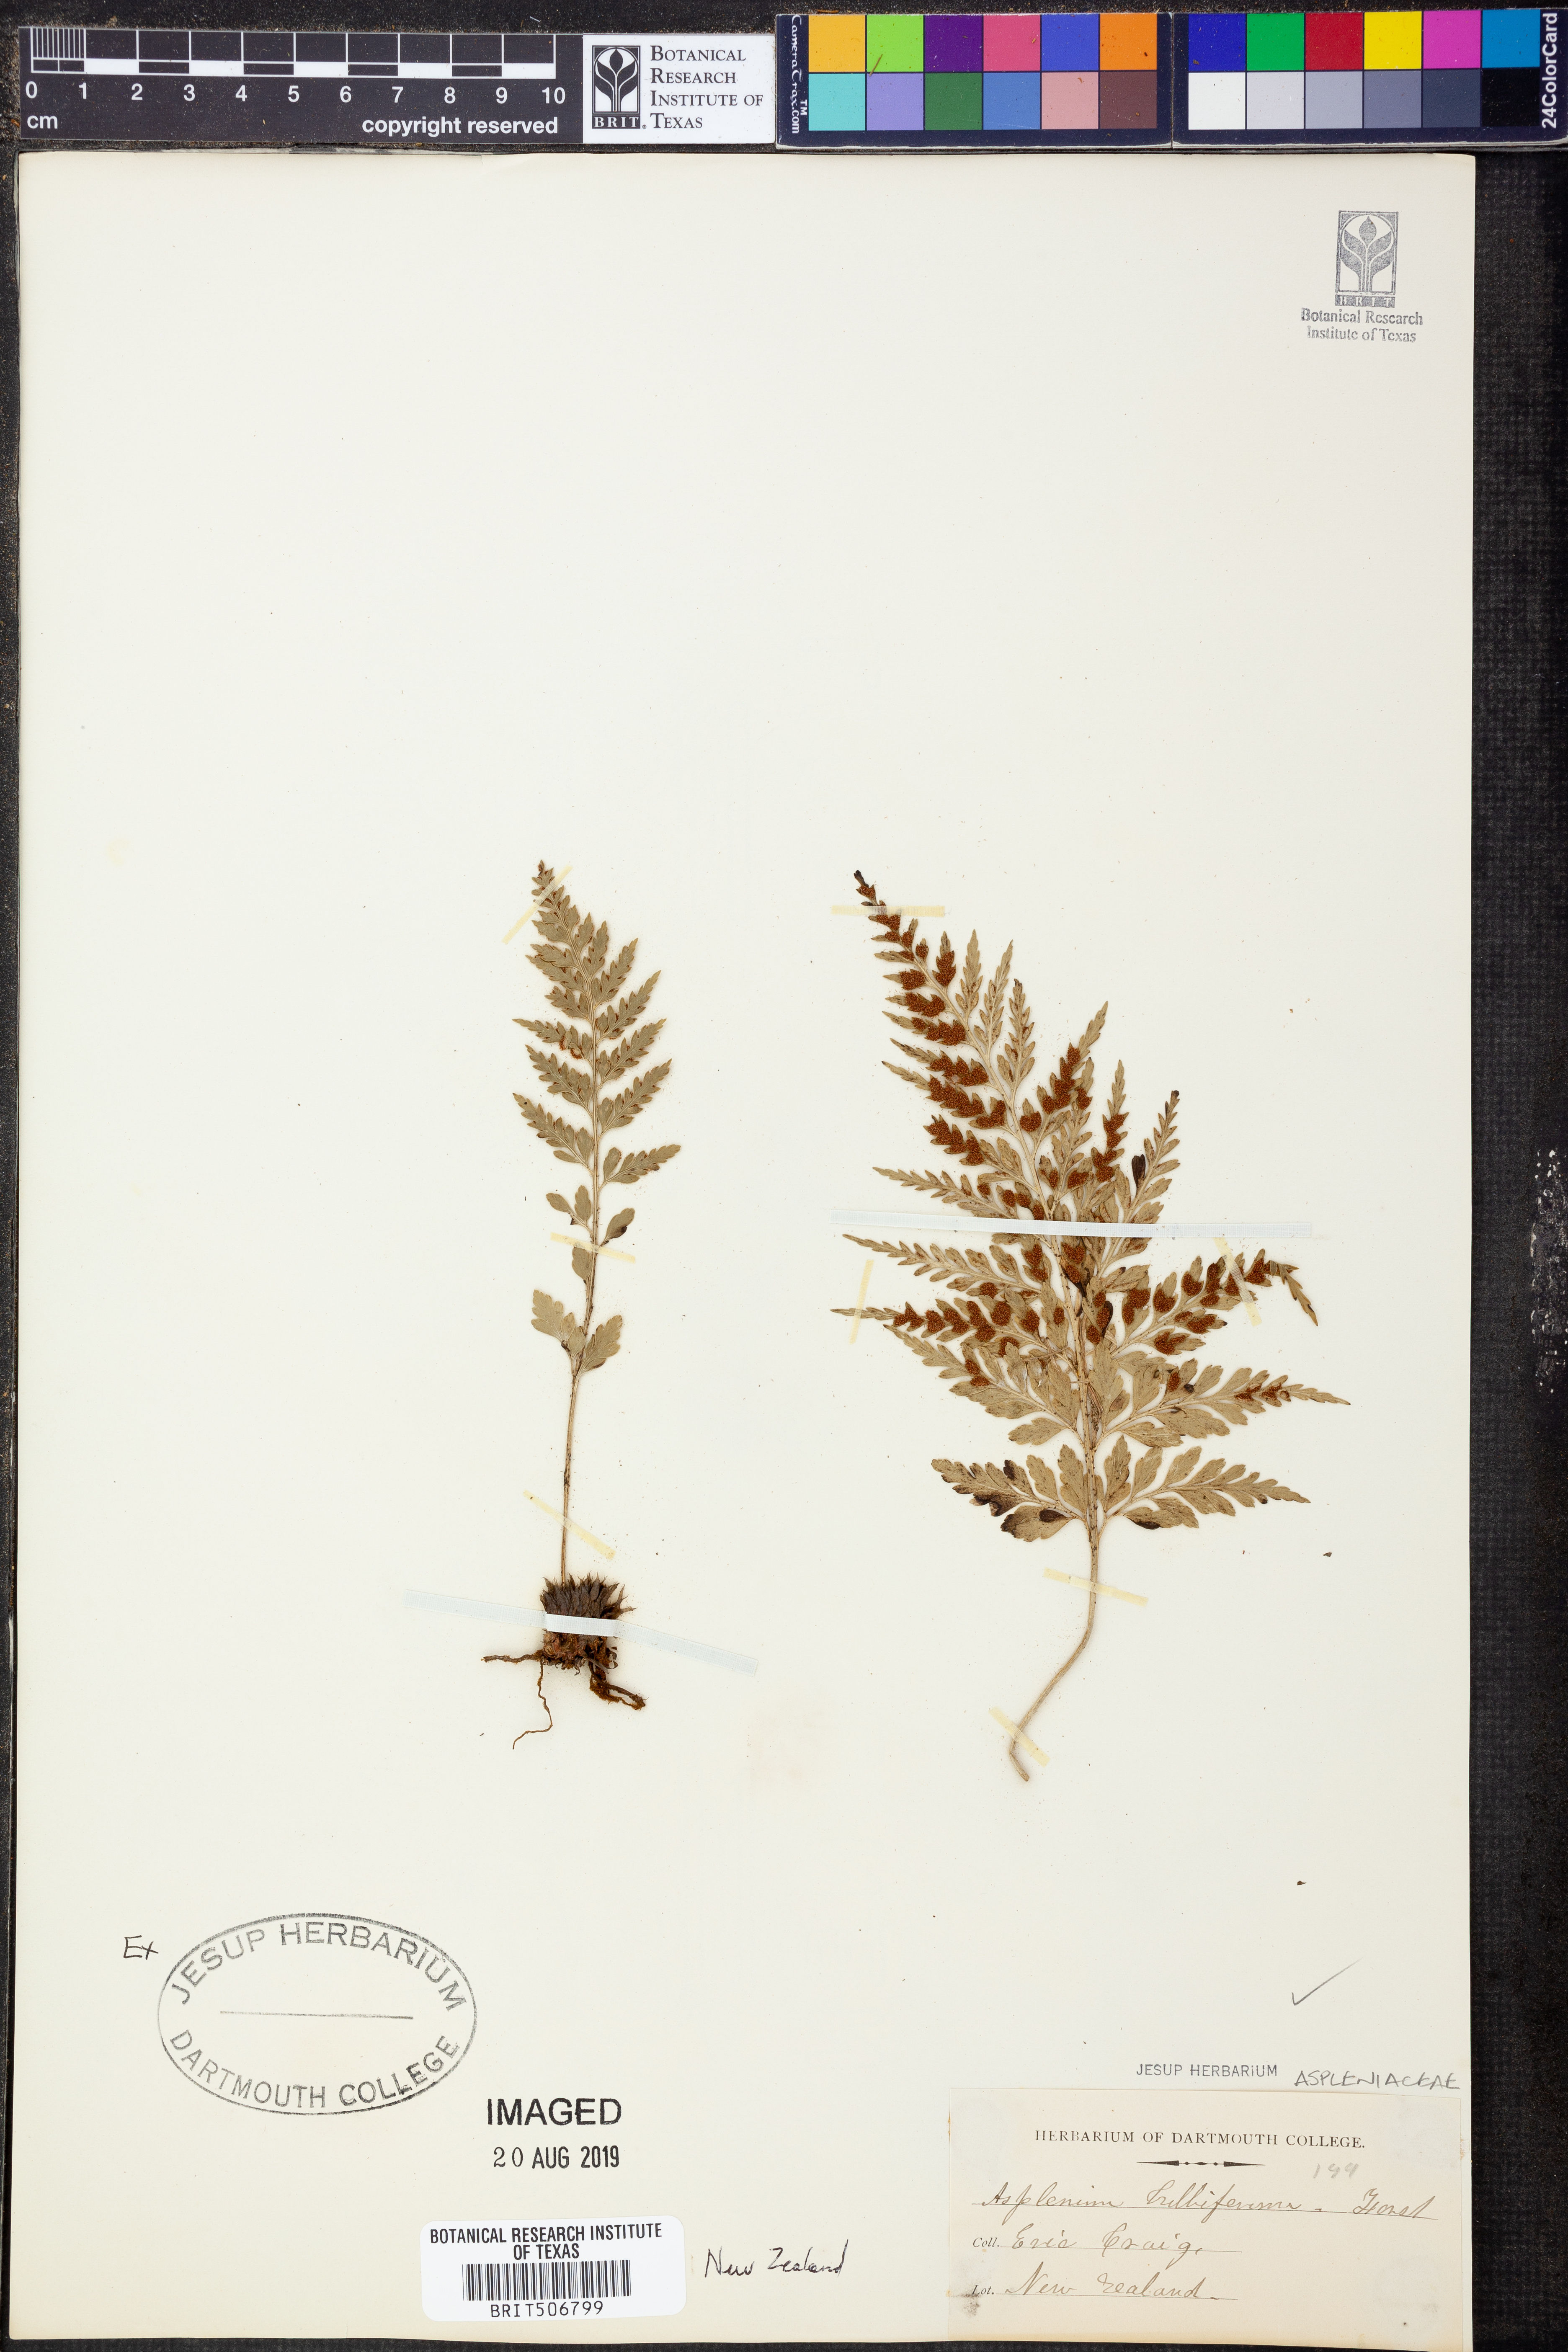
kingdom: Plantae
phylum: Tracheophyta
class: Polypodiopsida
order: Polypodiales
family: Aspleniaceae
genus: Asplenium
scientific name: Asplenium bulbiferum
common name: Mother fern
